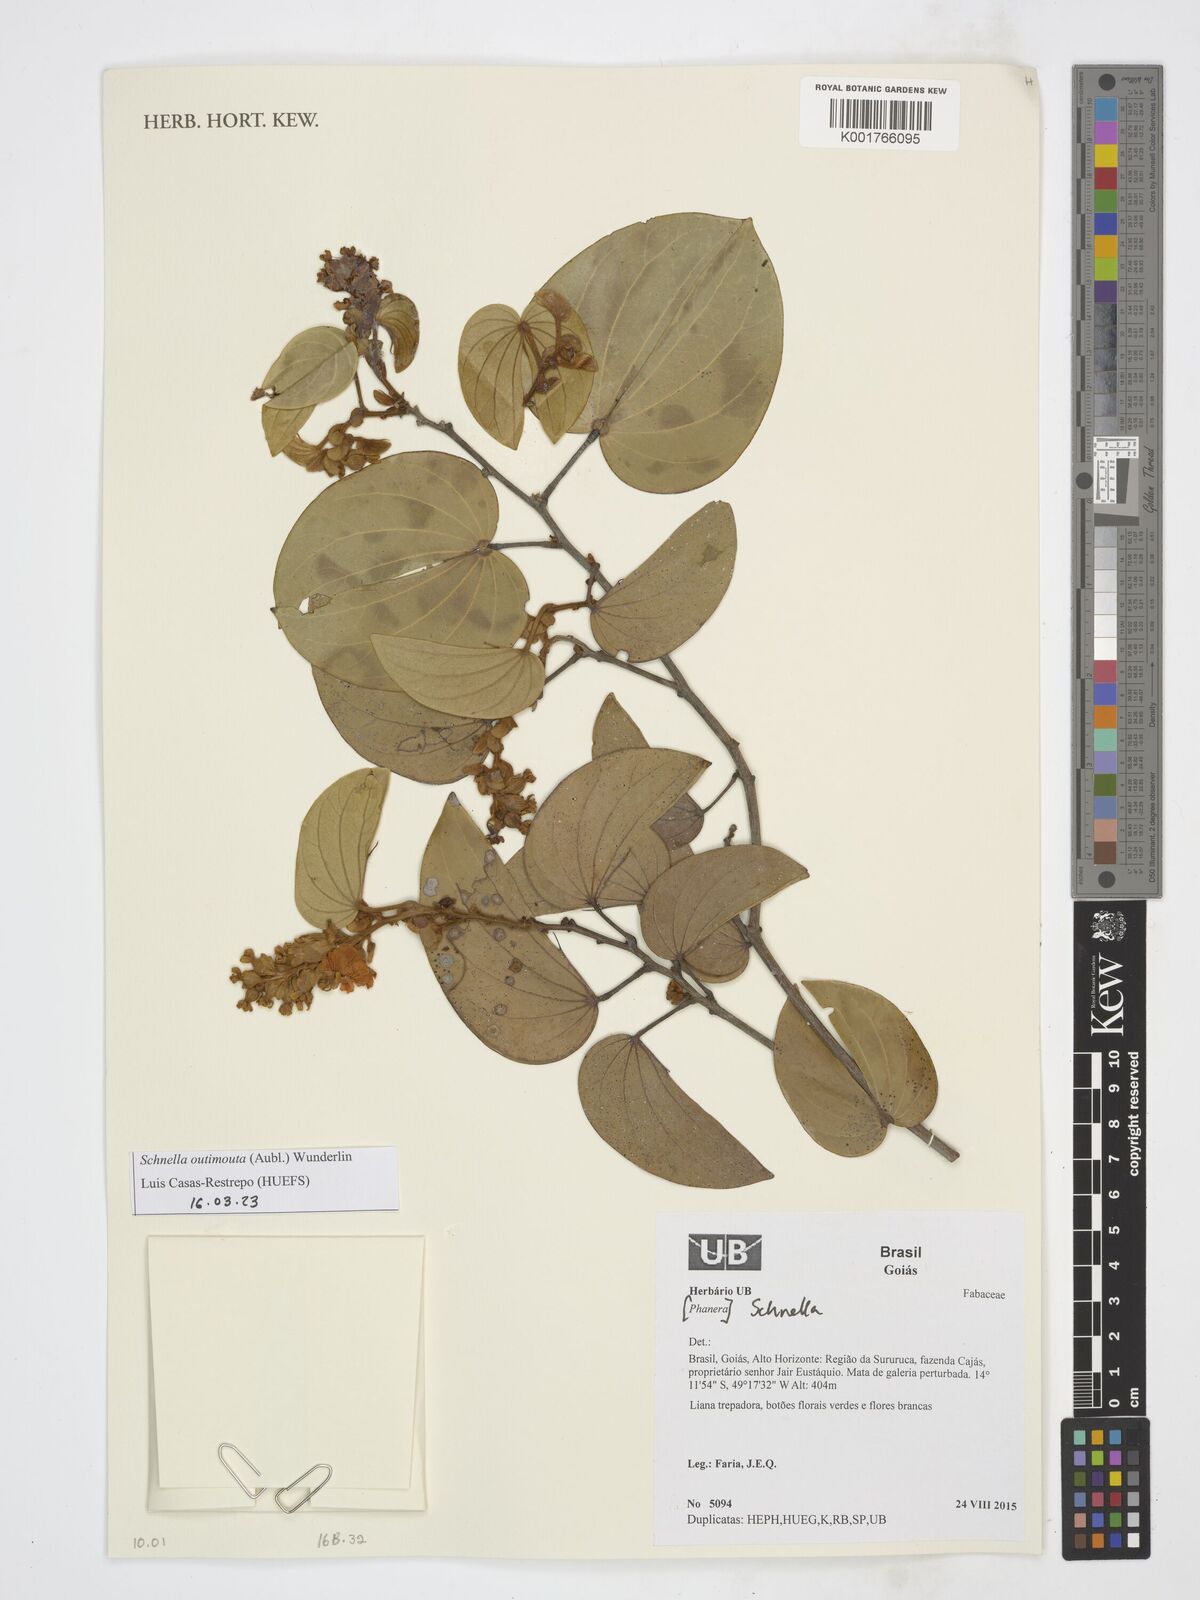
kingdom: Plantae
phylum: Tracheophyta
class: Magnoliopsida
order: Fabales
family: Fabaceae
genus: Schnella
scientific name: Schnella outimouta
